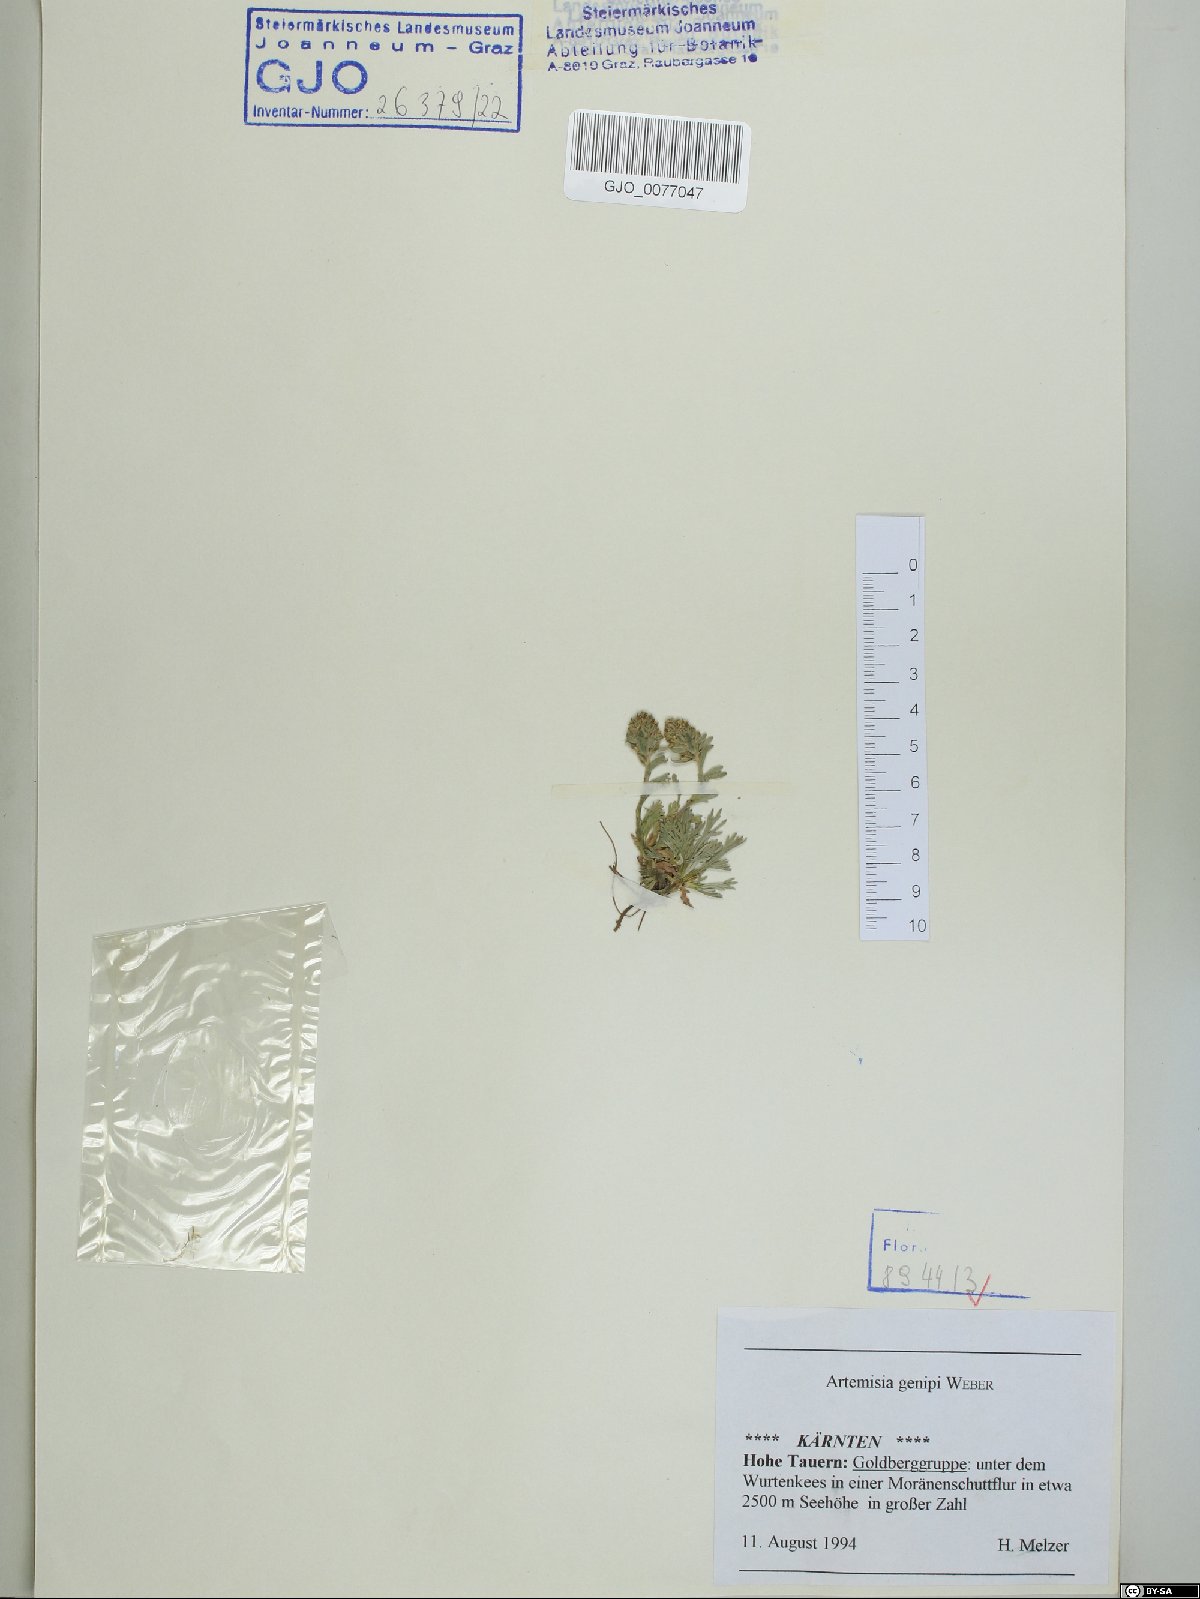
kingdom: Plantae
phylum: Tracheophyta
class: Magnoliopsida
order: Asterales
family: Asteraceae
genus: Artemisia
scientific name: Artemisia genipi
